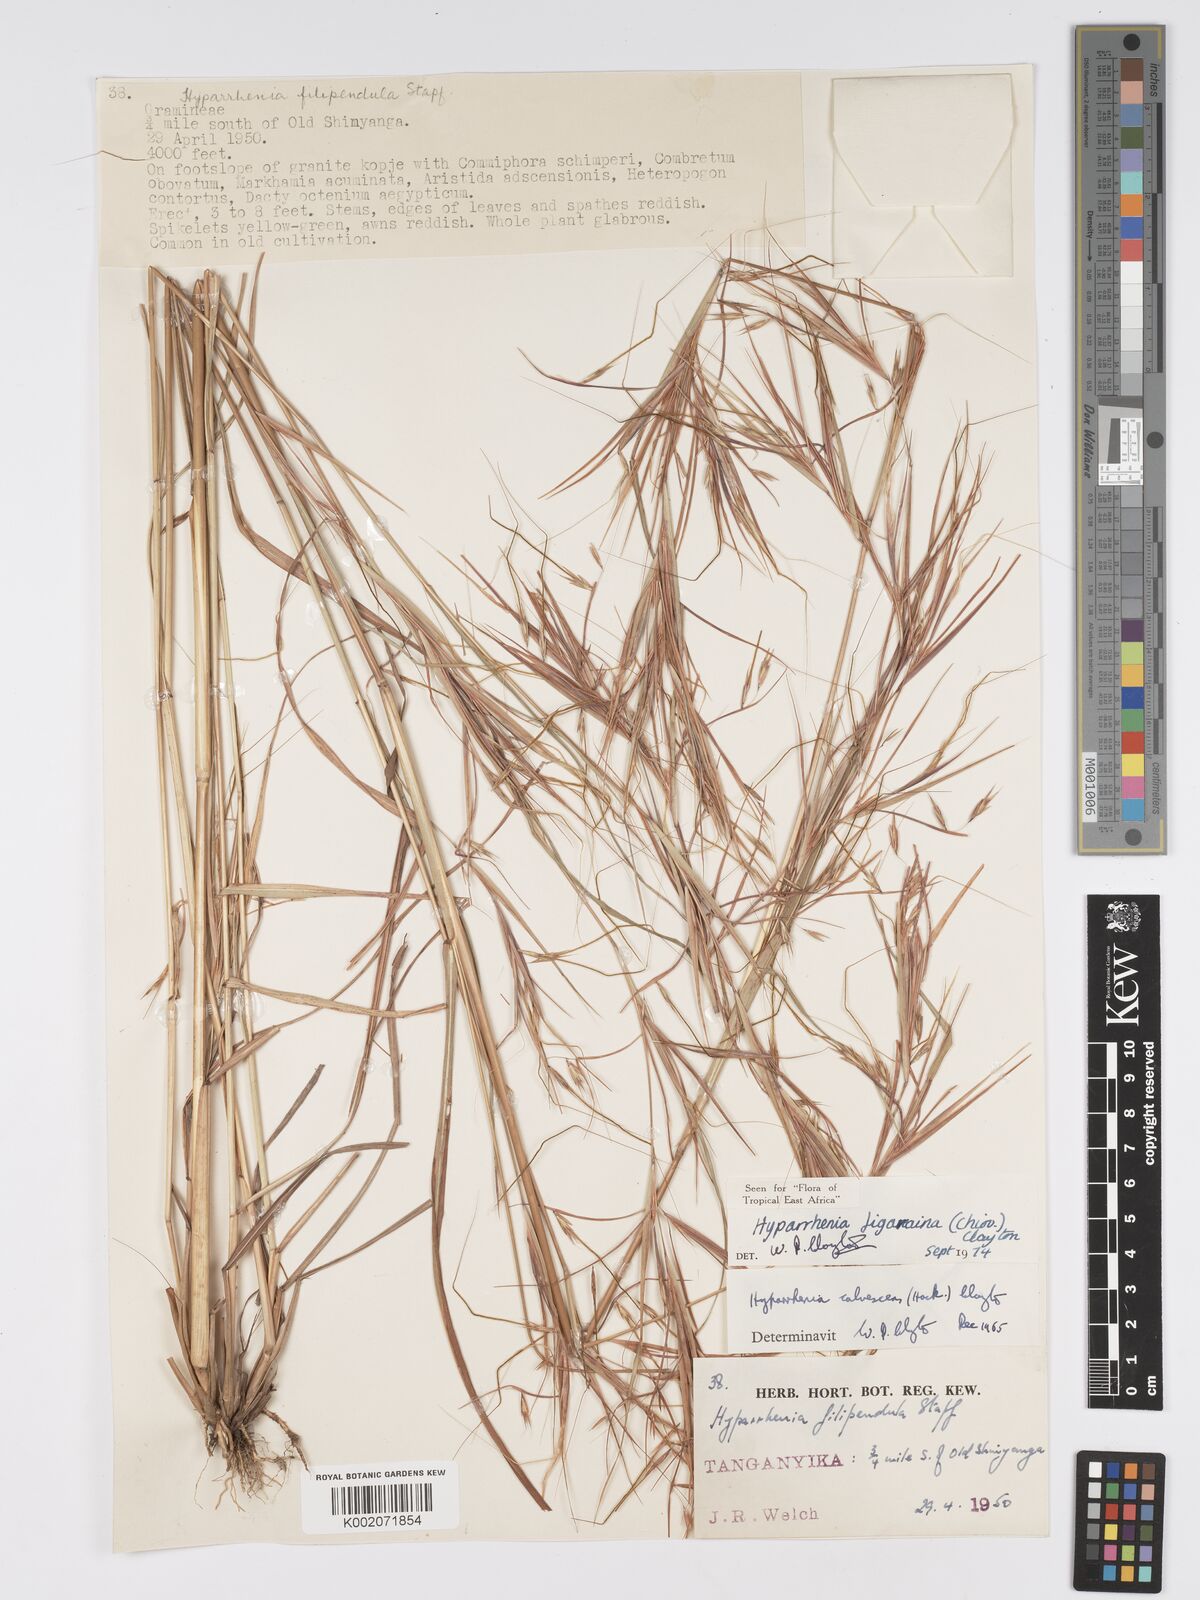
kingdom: Plantae
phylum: Tracheophyta
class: Liliopsida
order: Poales
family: Poaceae
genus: Hyparrhenia
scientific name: Hyparrhenia figariana
